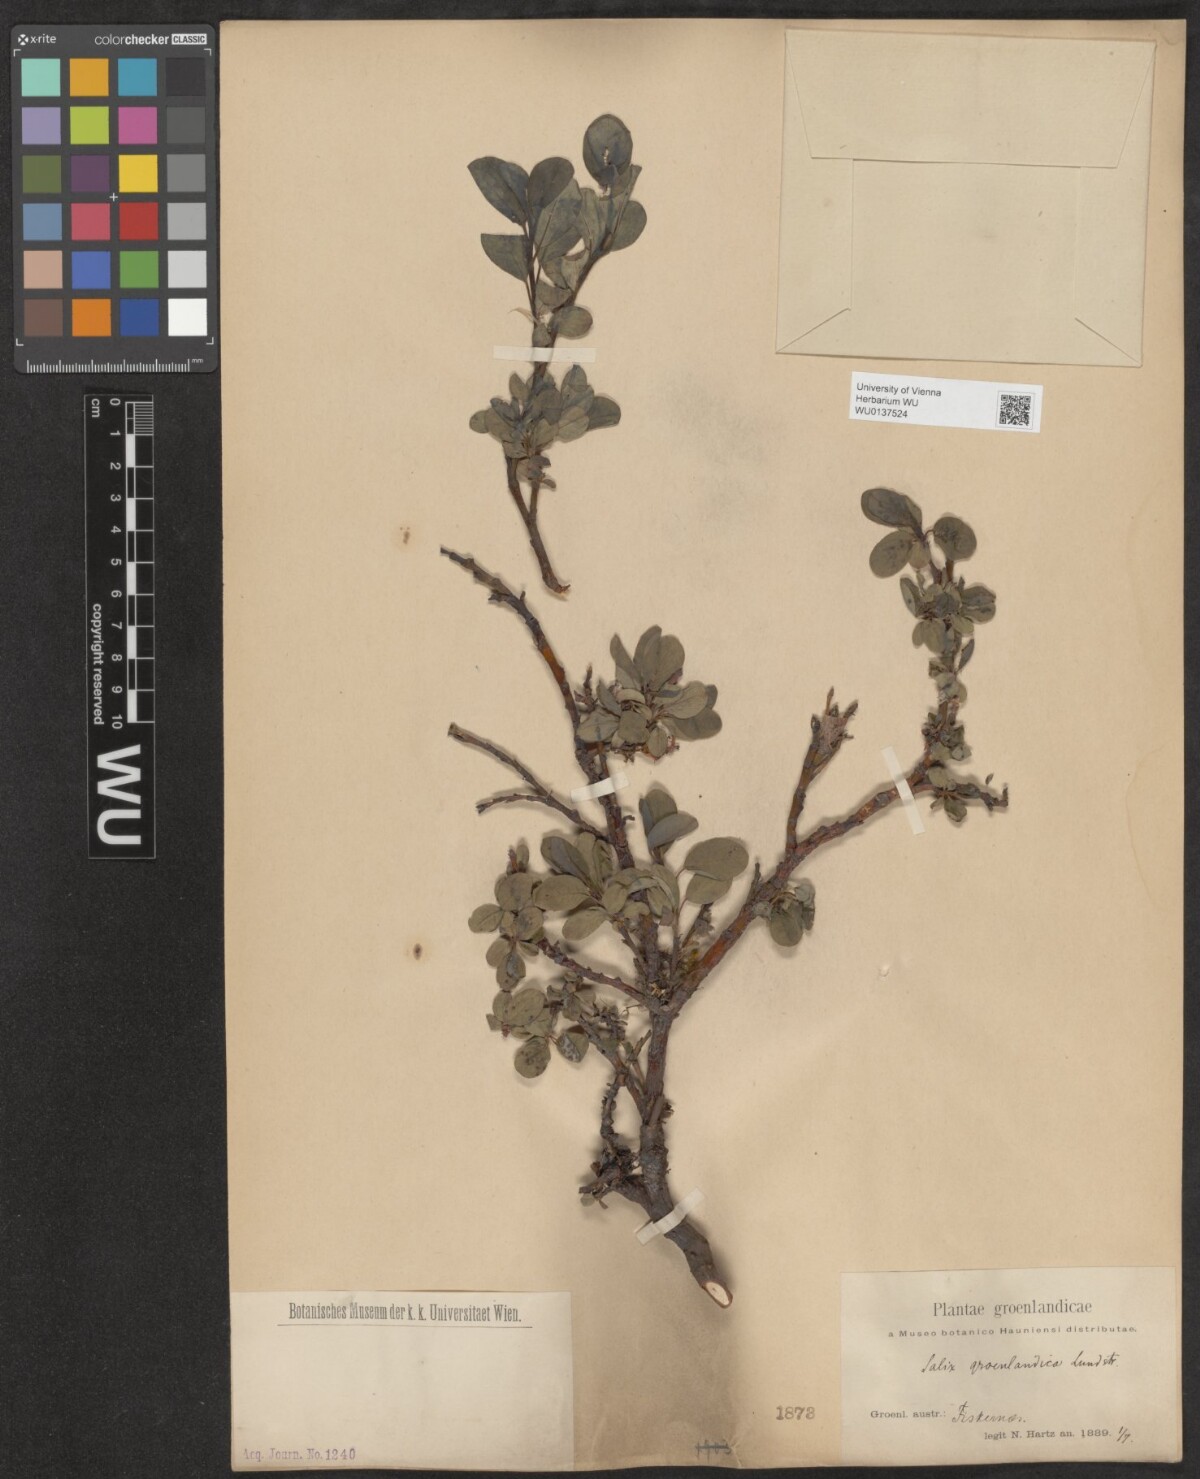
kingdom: Plantae
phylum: Tracheophyta
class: Magnoliopsida
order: Malpighiales
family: Salicaceae
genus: Salix
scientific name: Salix arctophila
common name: Greenland willow
